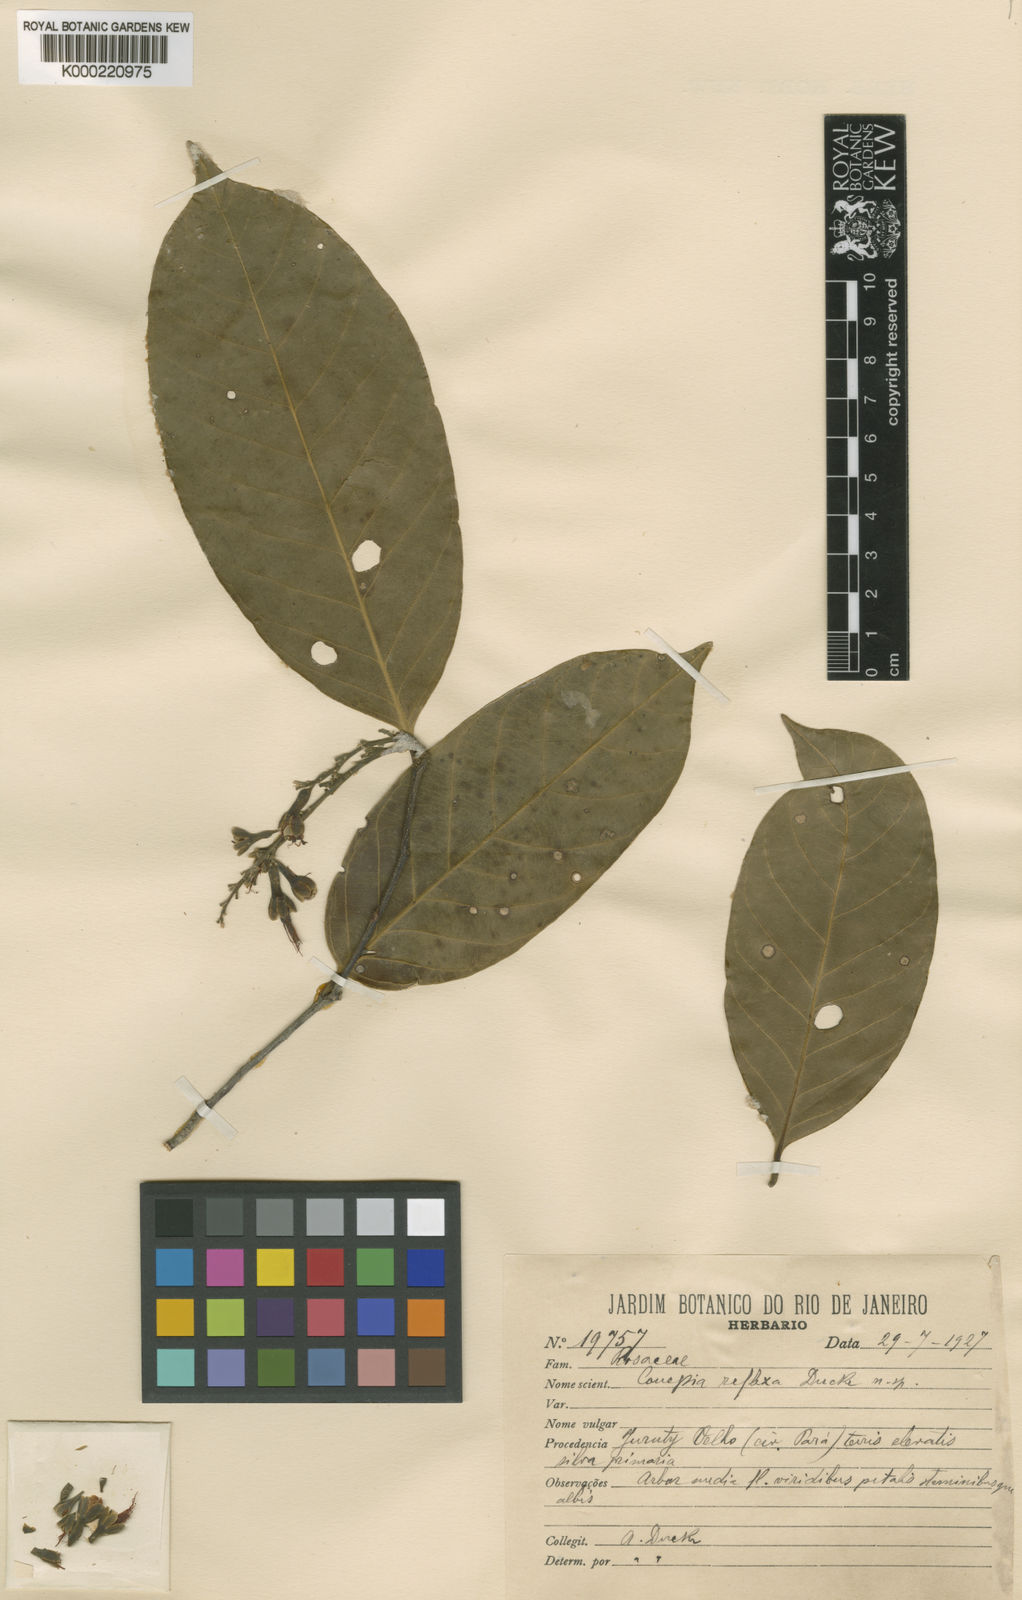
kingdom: Plantae
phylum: Tracheophyta
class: Magnoliopsida
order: Malpighiales
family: Chrysobalanaceae
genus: Couepia
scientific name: Couepia reflexa
